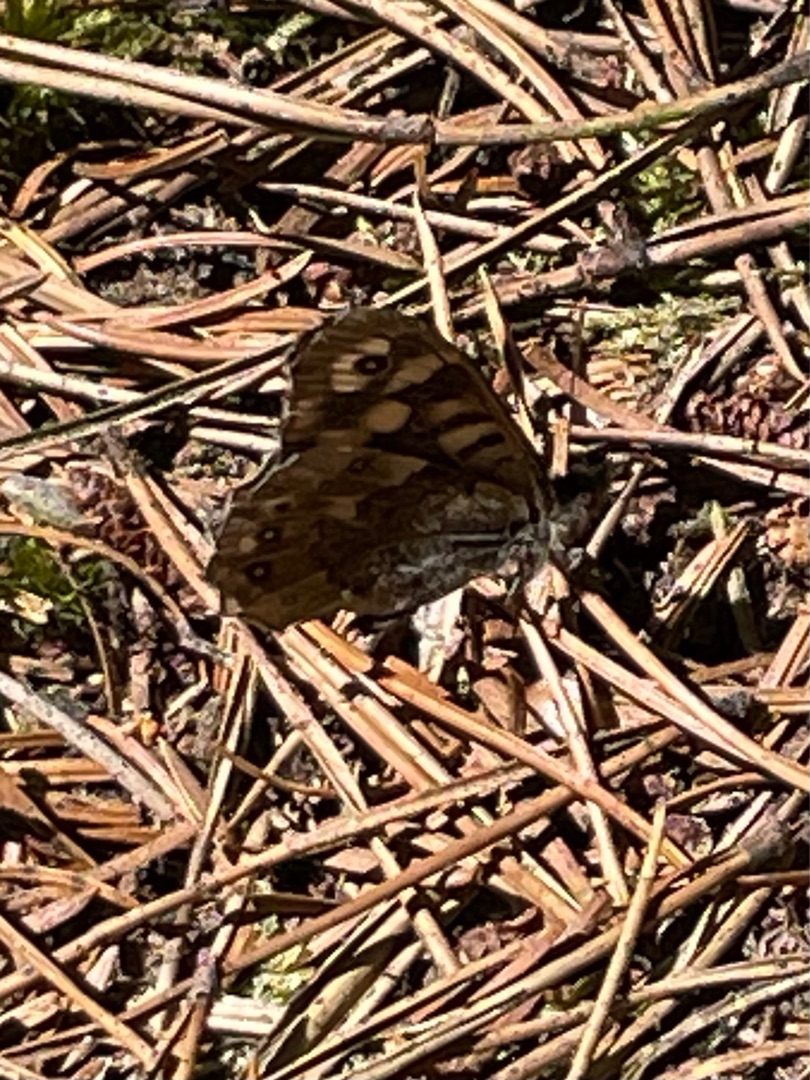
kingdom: Animalia
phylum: Arthropoda
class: Insecta
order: Lepidoptera
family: Nymphalidae
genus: Pararge
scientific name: Pararge aegeria
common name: Skovrandøje
